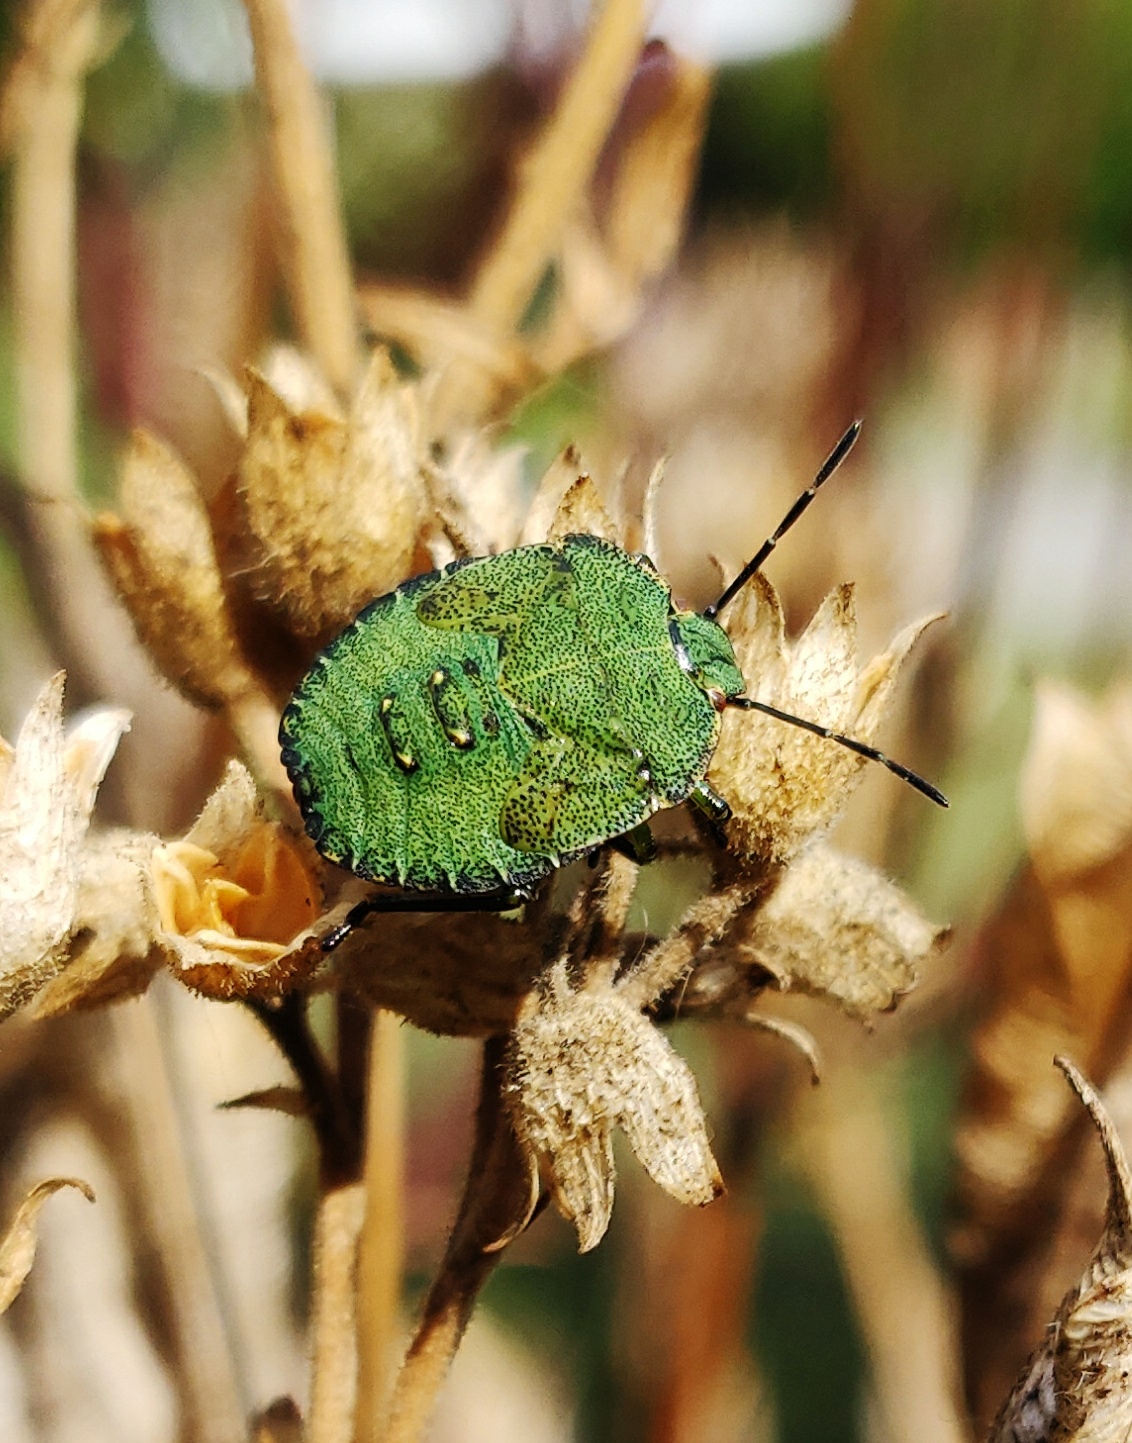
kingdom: Animalia
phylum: Arthropoda
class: Insecta
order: Hemiptera
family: Pentatomidae
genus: Palomena
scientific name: Palomena prasina
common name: Grøn bredtæge
